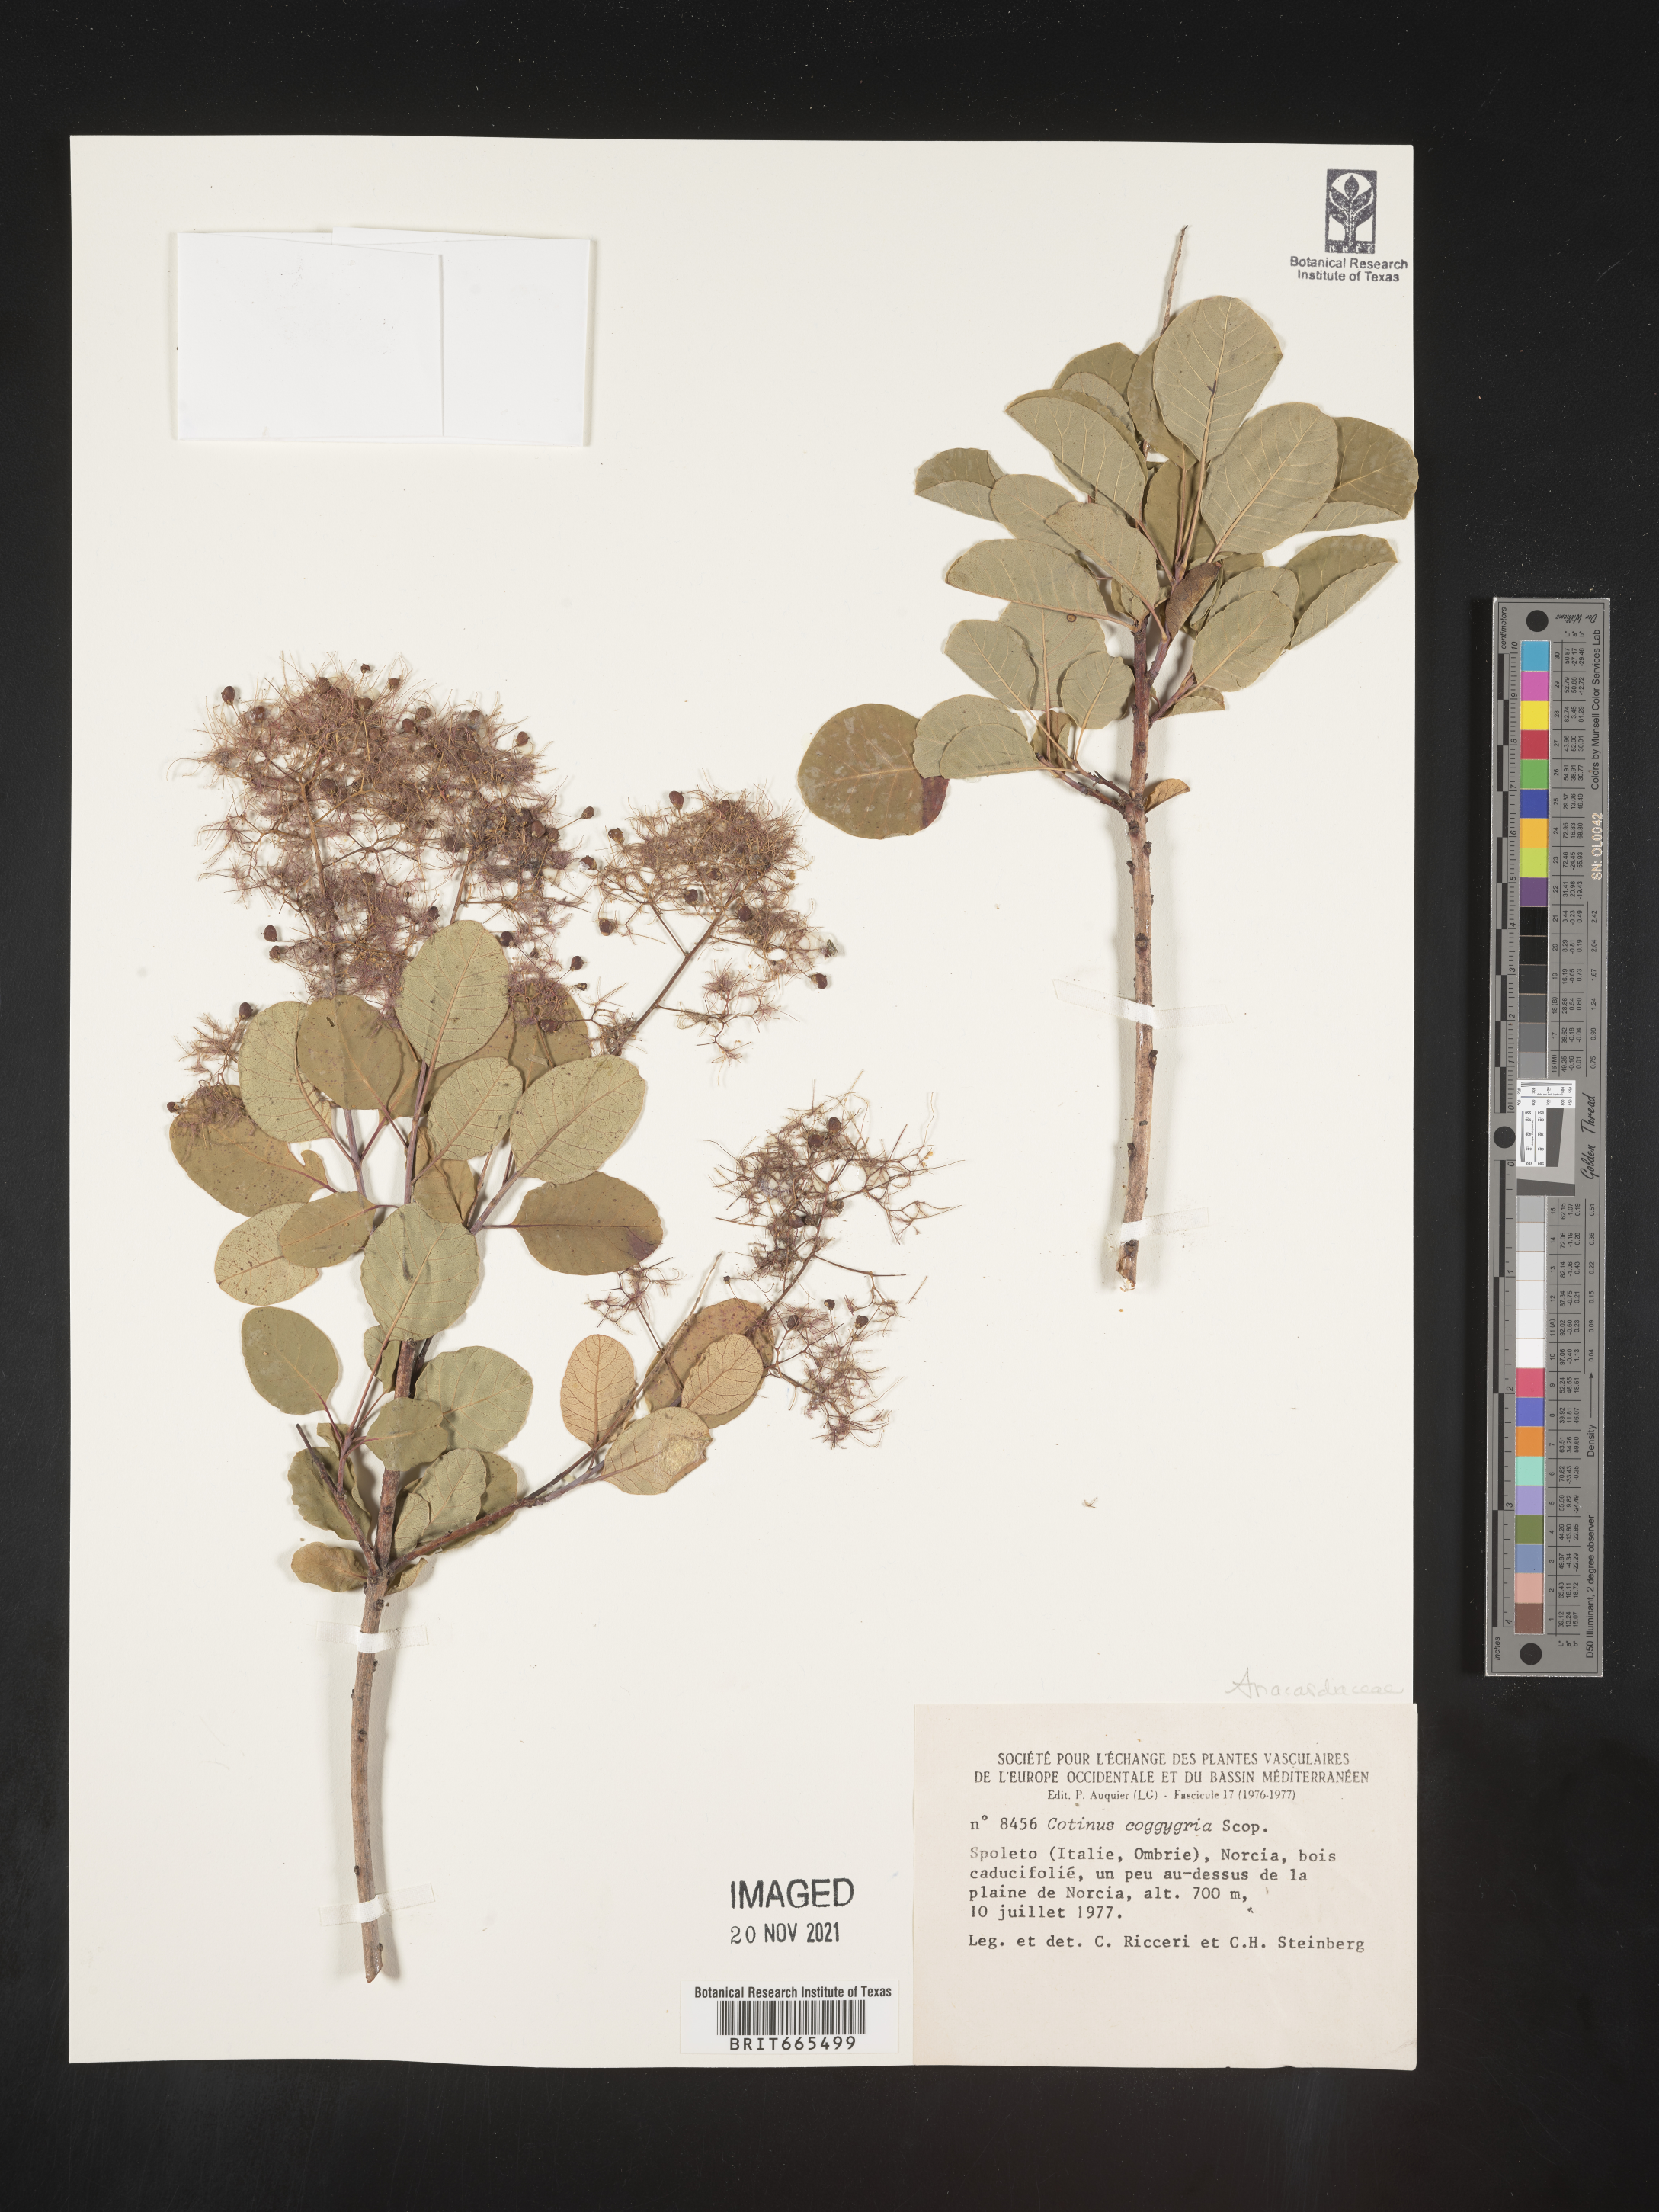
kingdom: Plantae
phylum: Tracheophyta
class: Magnoliopsida
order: Sapindales
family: Anacardiaceae
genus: Cotinus
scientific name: Cotinus
